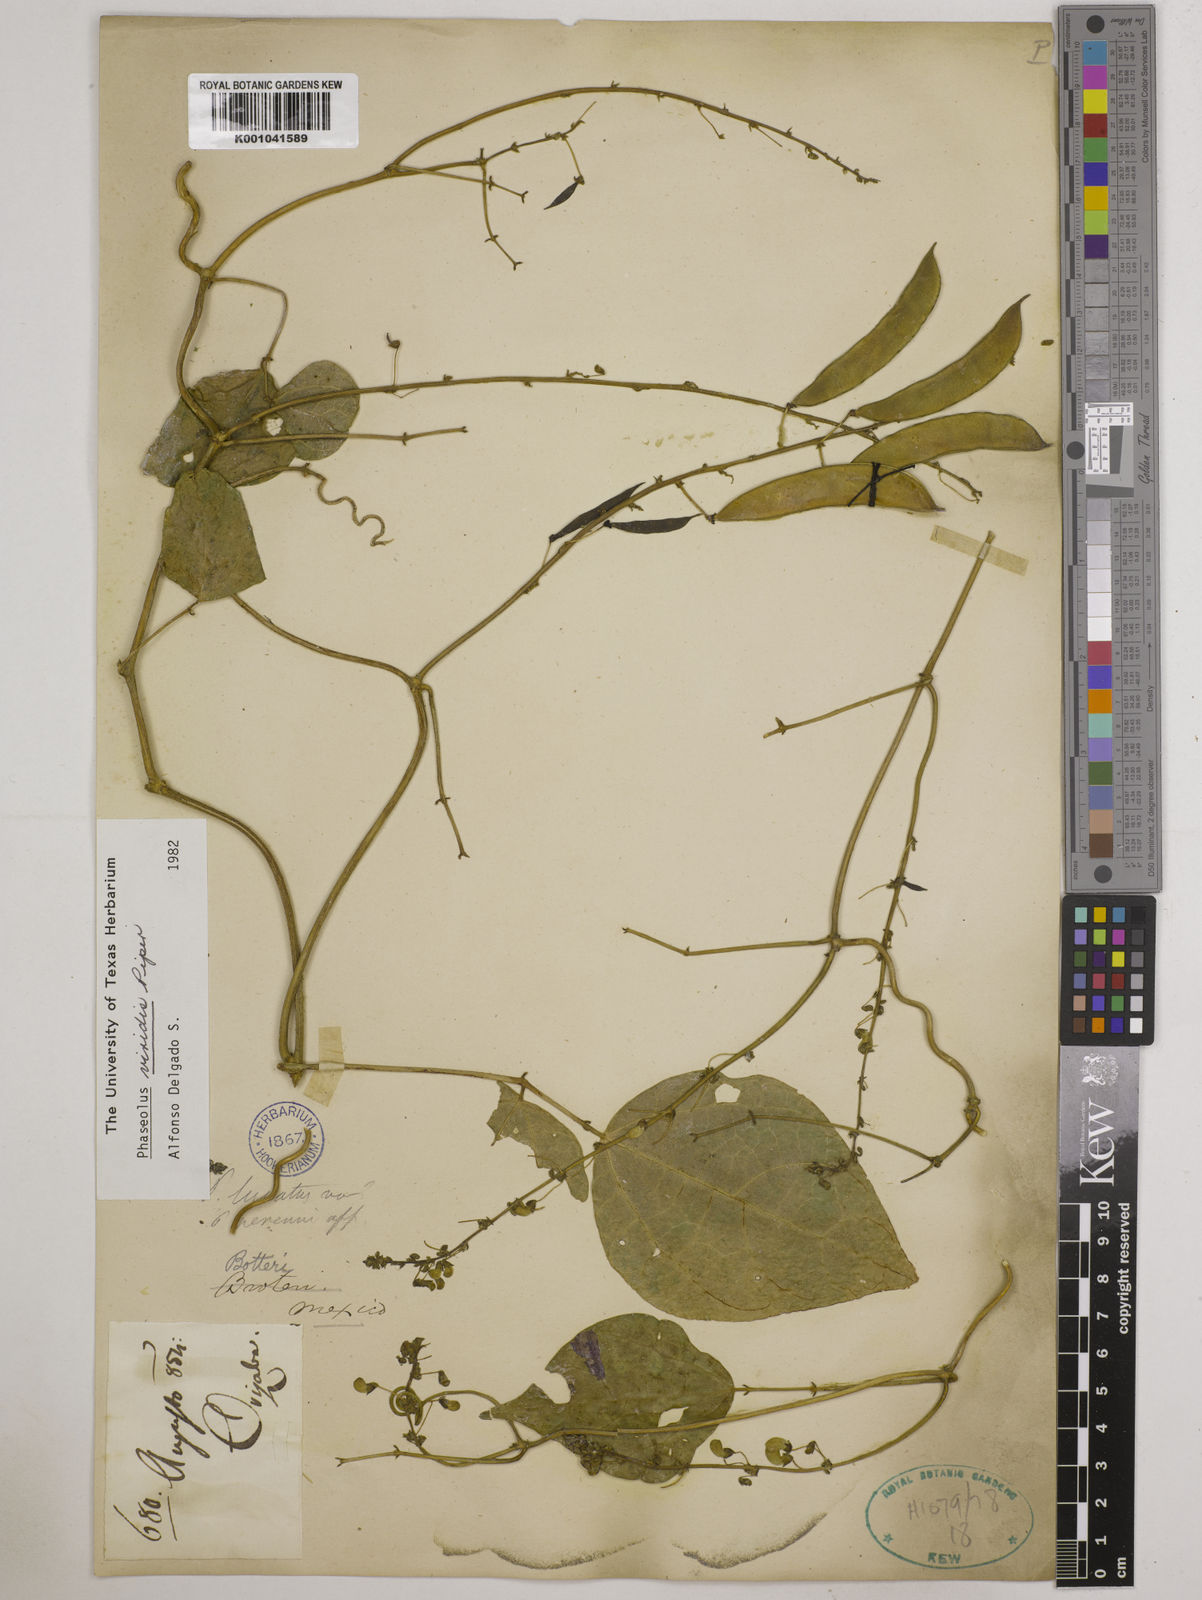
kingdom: Plantae
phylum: Tracheophyta
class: Magnoliopsida
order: Fabales
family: Fabaceae
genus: Phaseolus
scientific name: Phaseolus viridis
